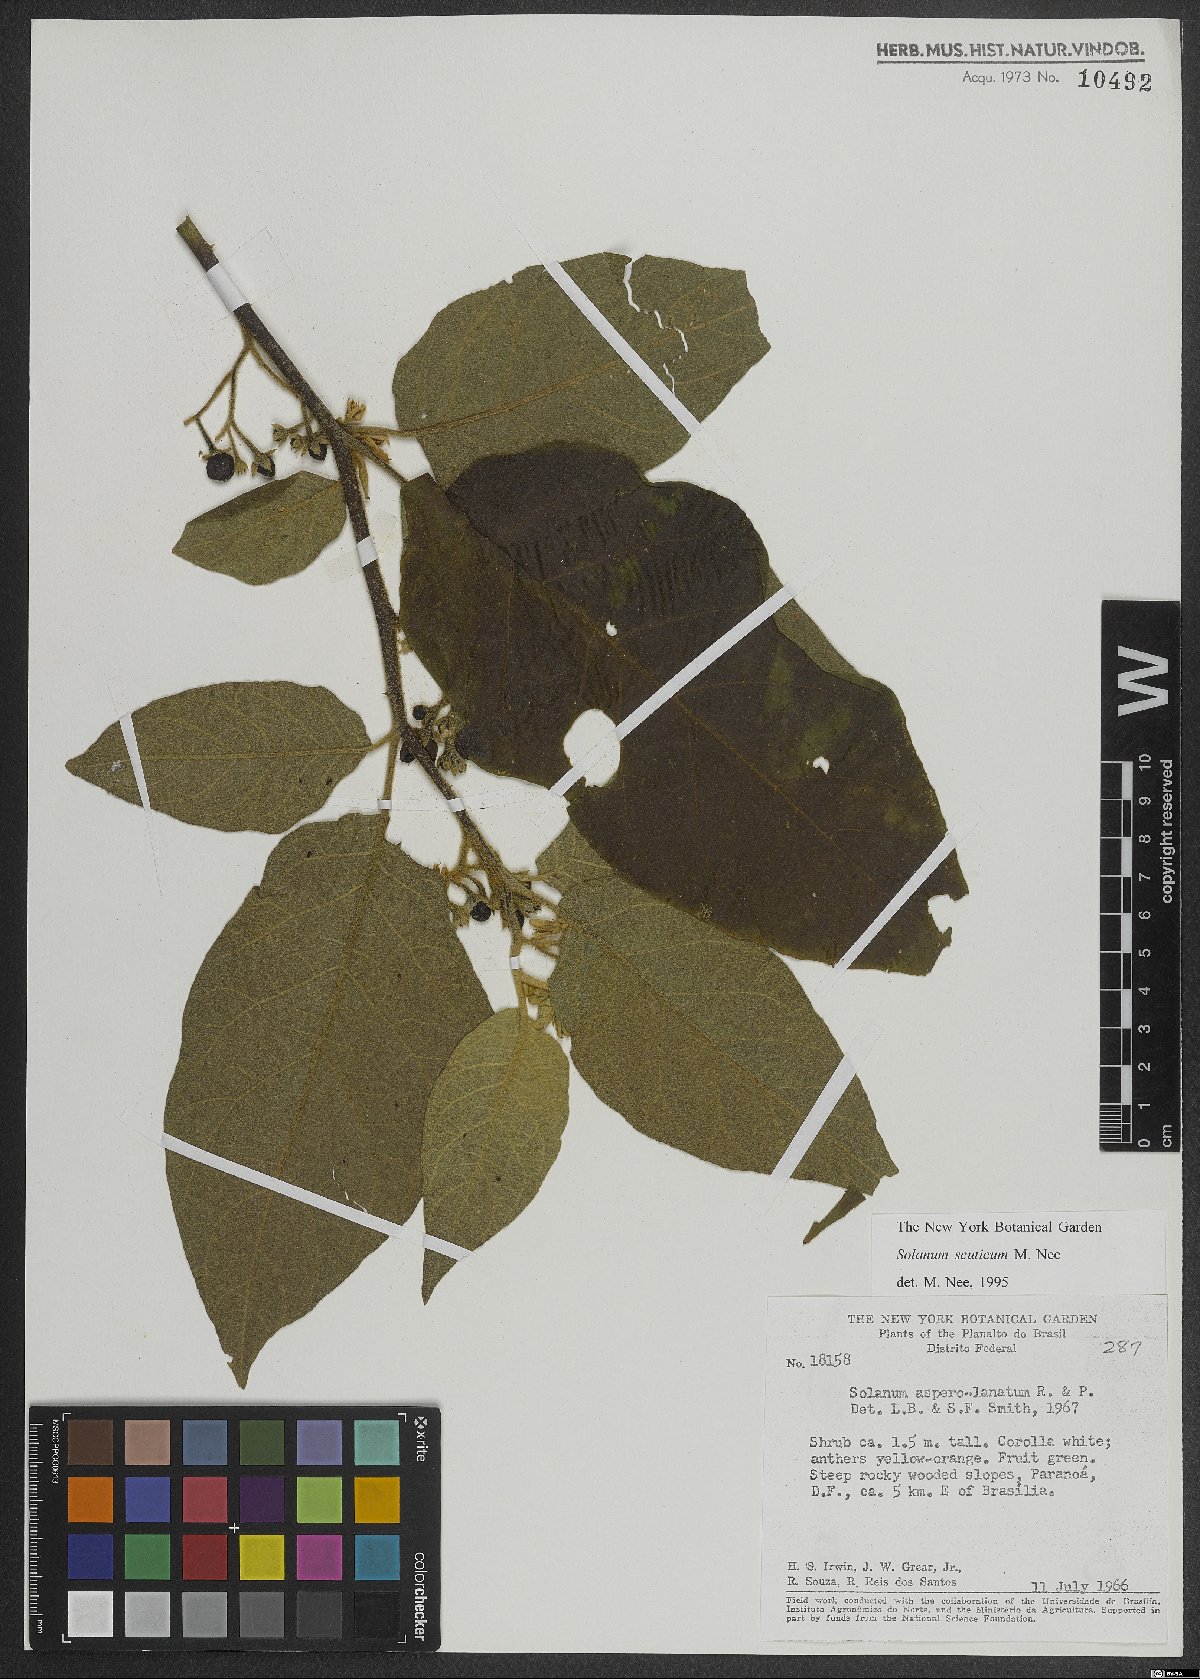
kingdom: Plantae
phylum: Tracheophyta
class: Magnoliopsida
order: Solanales
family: Solanaceae
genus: Solanum
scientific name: Solanum scuticum
